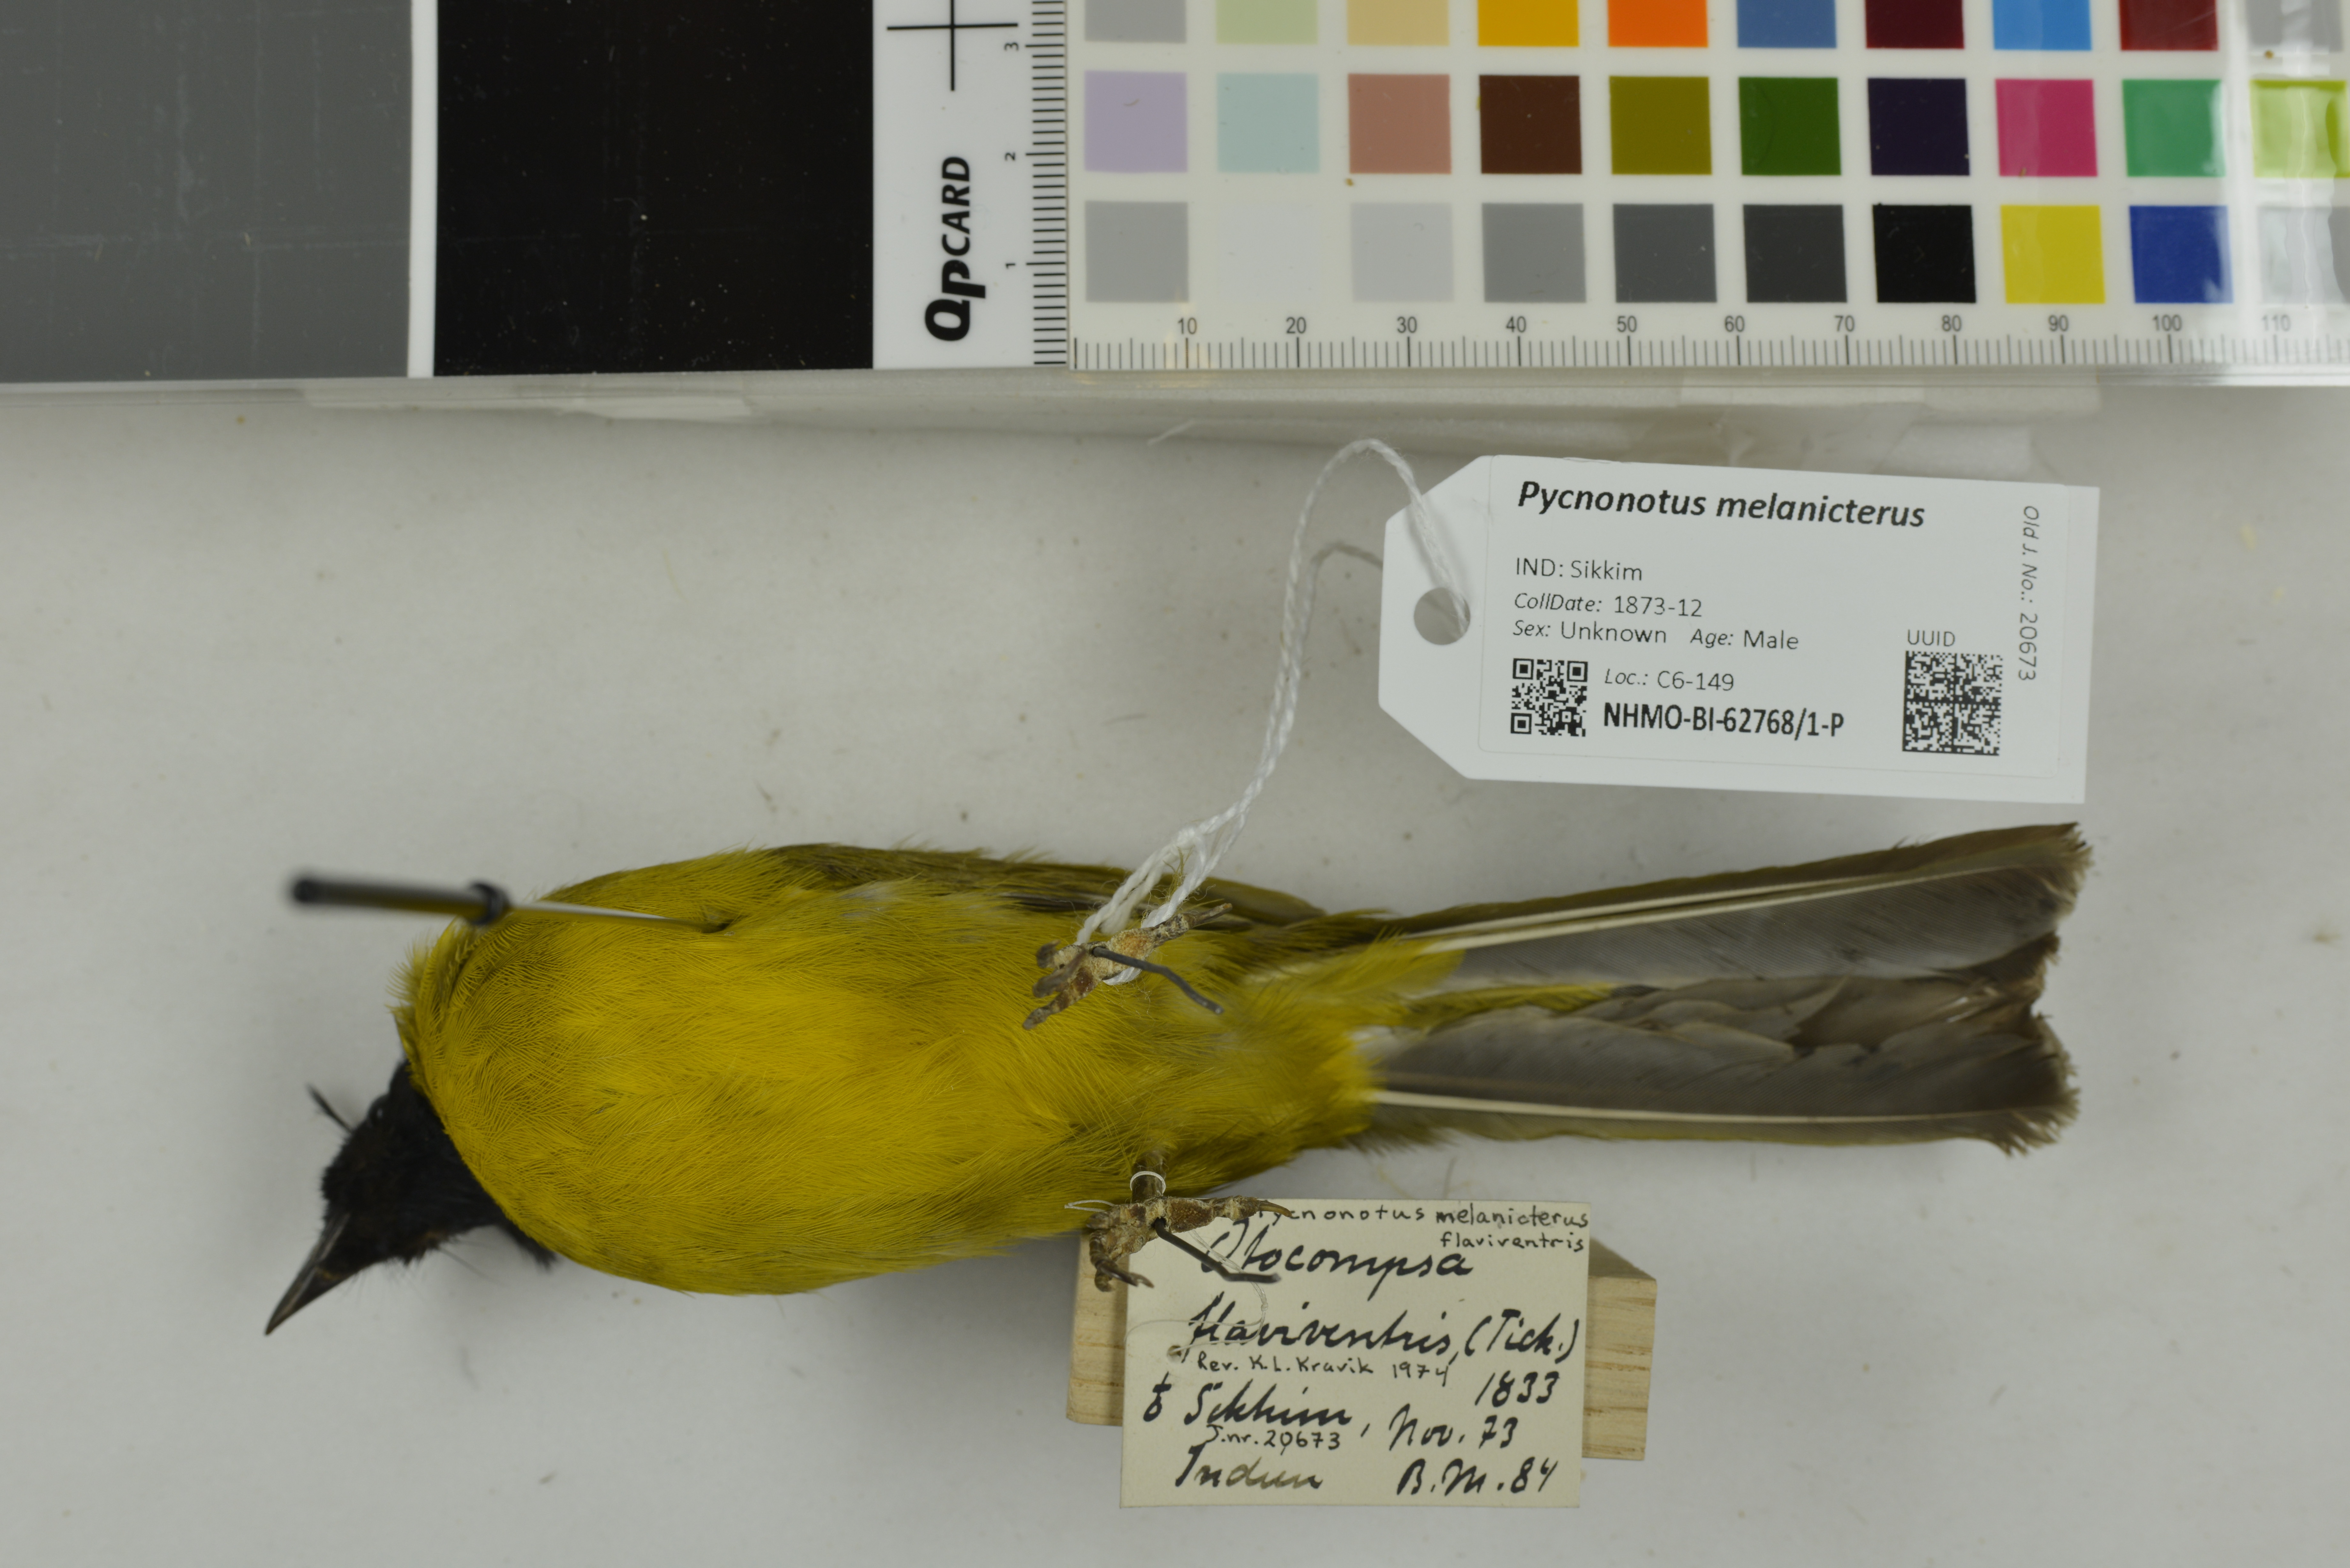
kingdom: Animalia
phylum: Chordata
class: Aves
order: Passeriformes
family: Pycnonotidae
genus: Pycnonotus
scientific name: Pycnonotus melanicterus
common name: Black-crested bulbul
